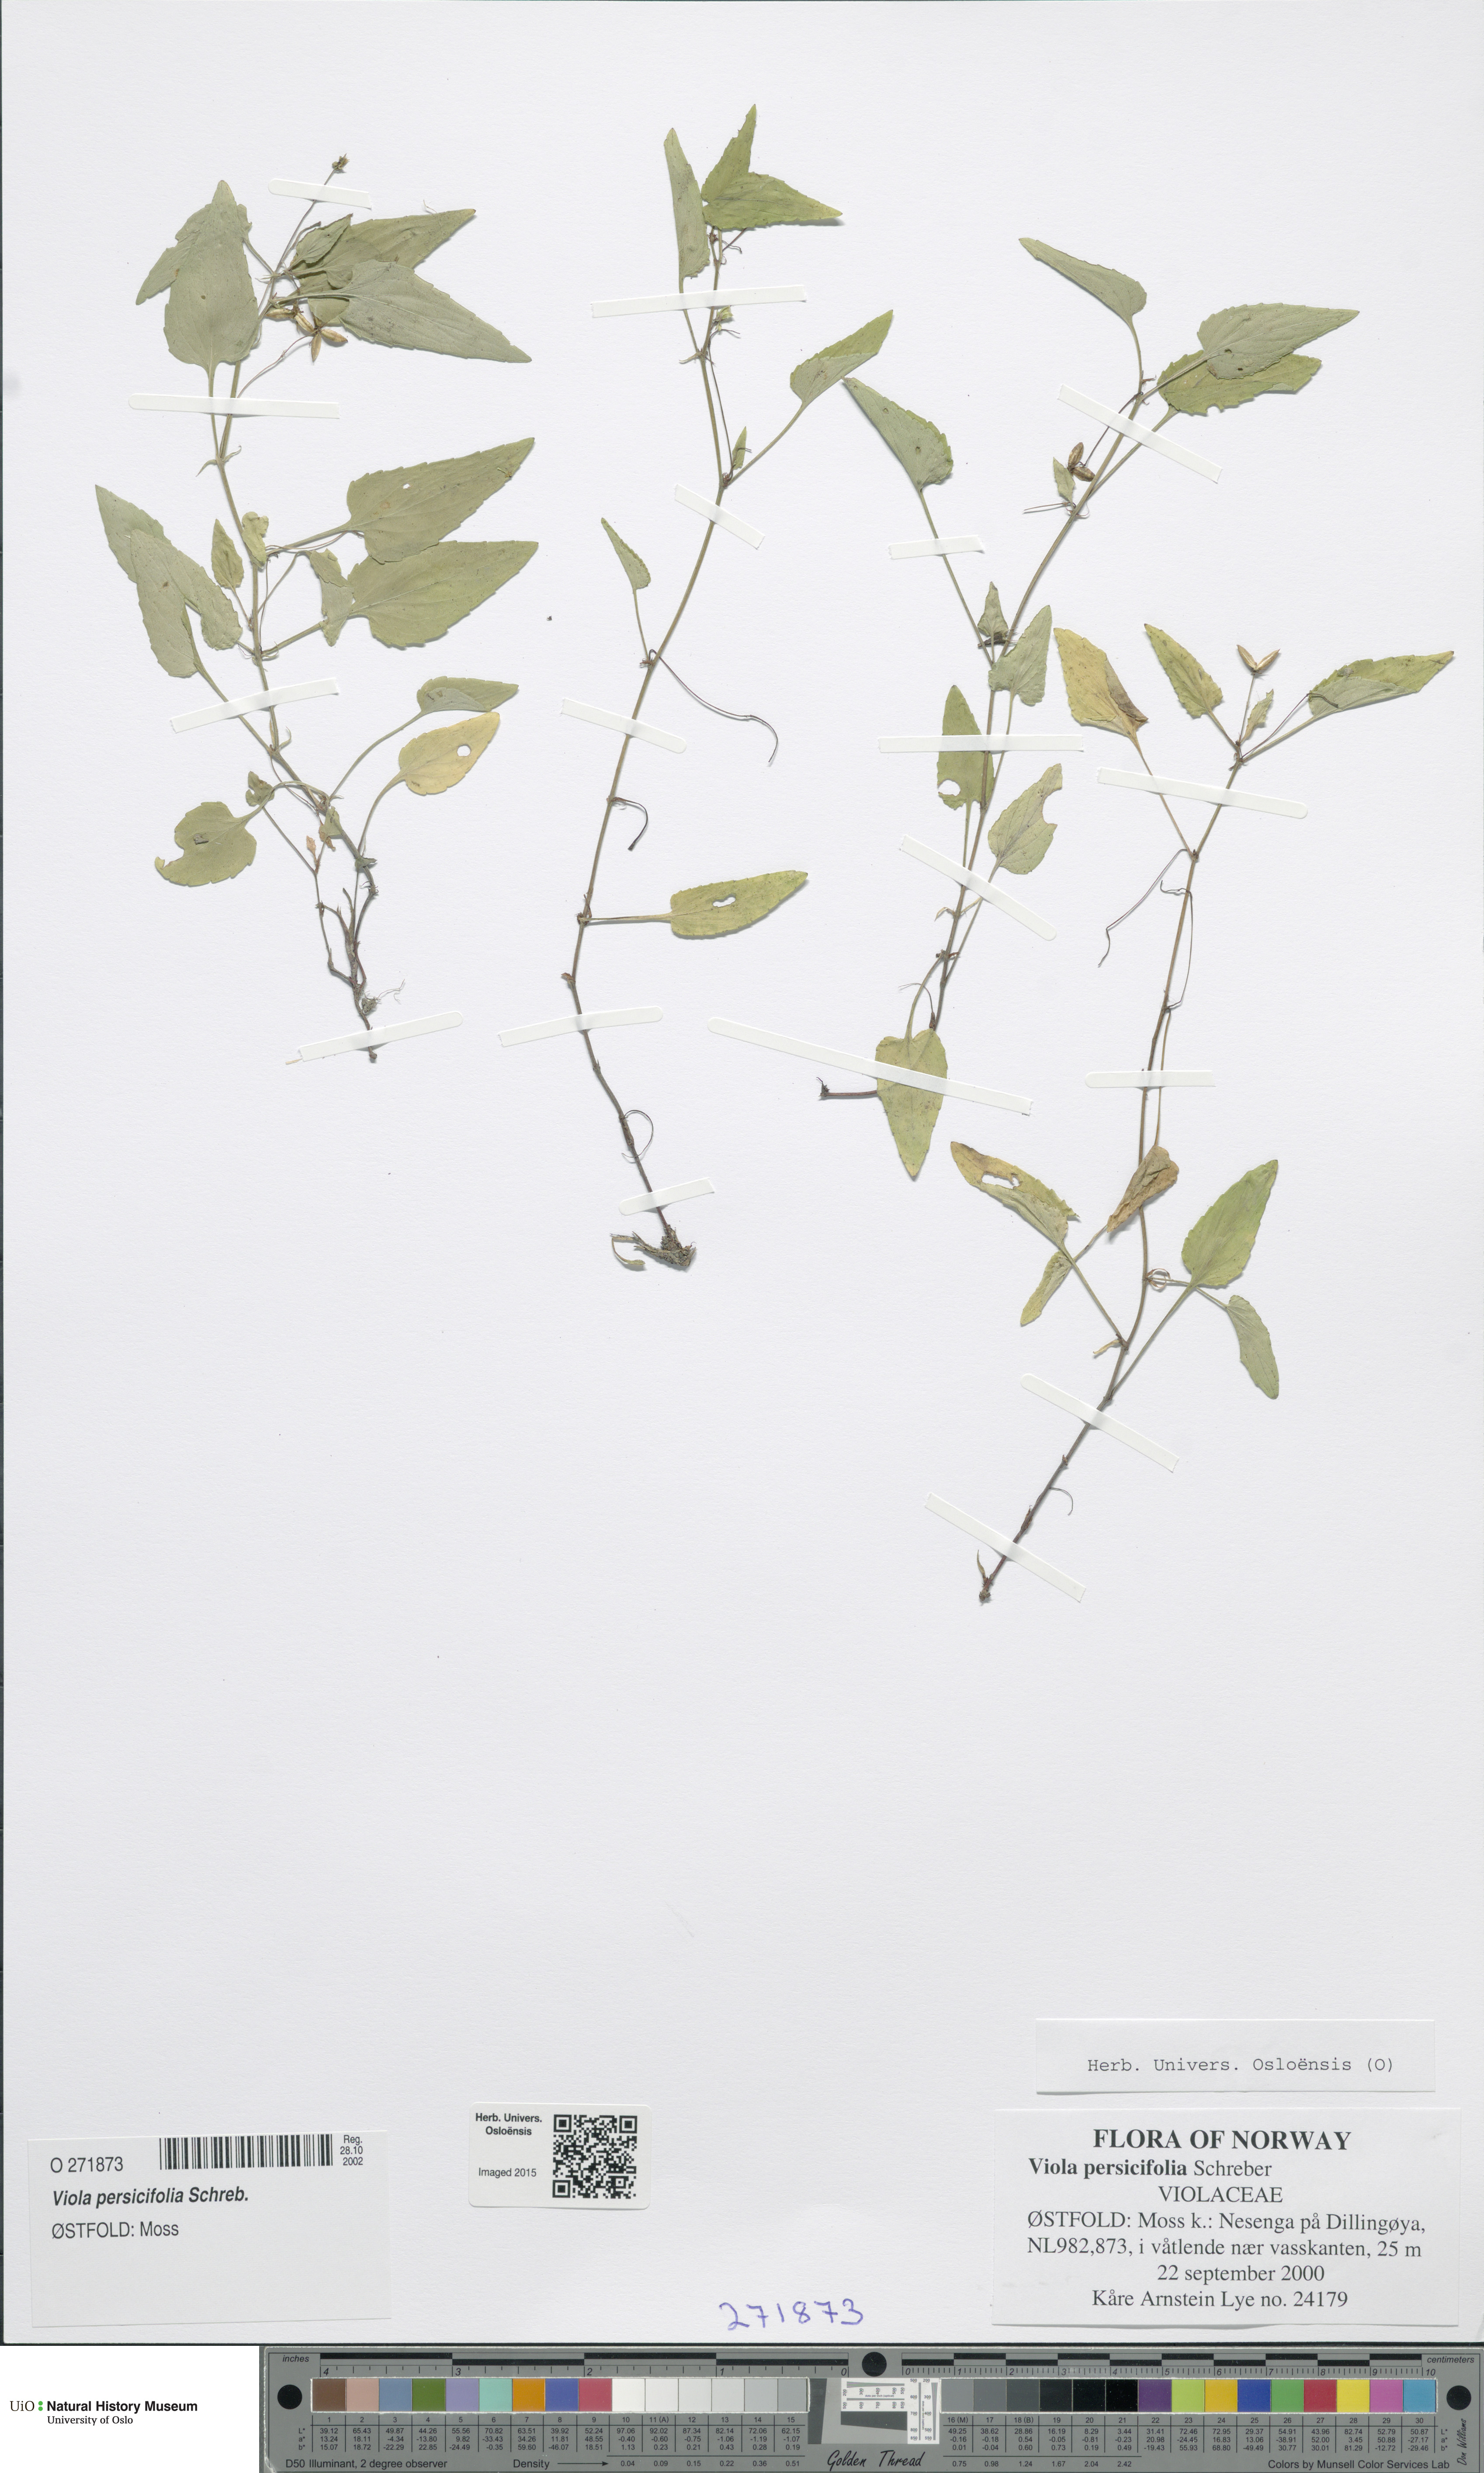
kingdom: Plantae
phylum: Tracheophyta
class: Magnoliopsida
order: Malpighiales
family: Violaceae
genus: Viola
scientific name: Viola stagnina
